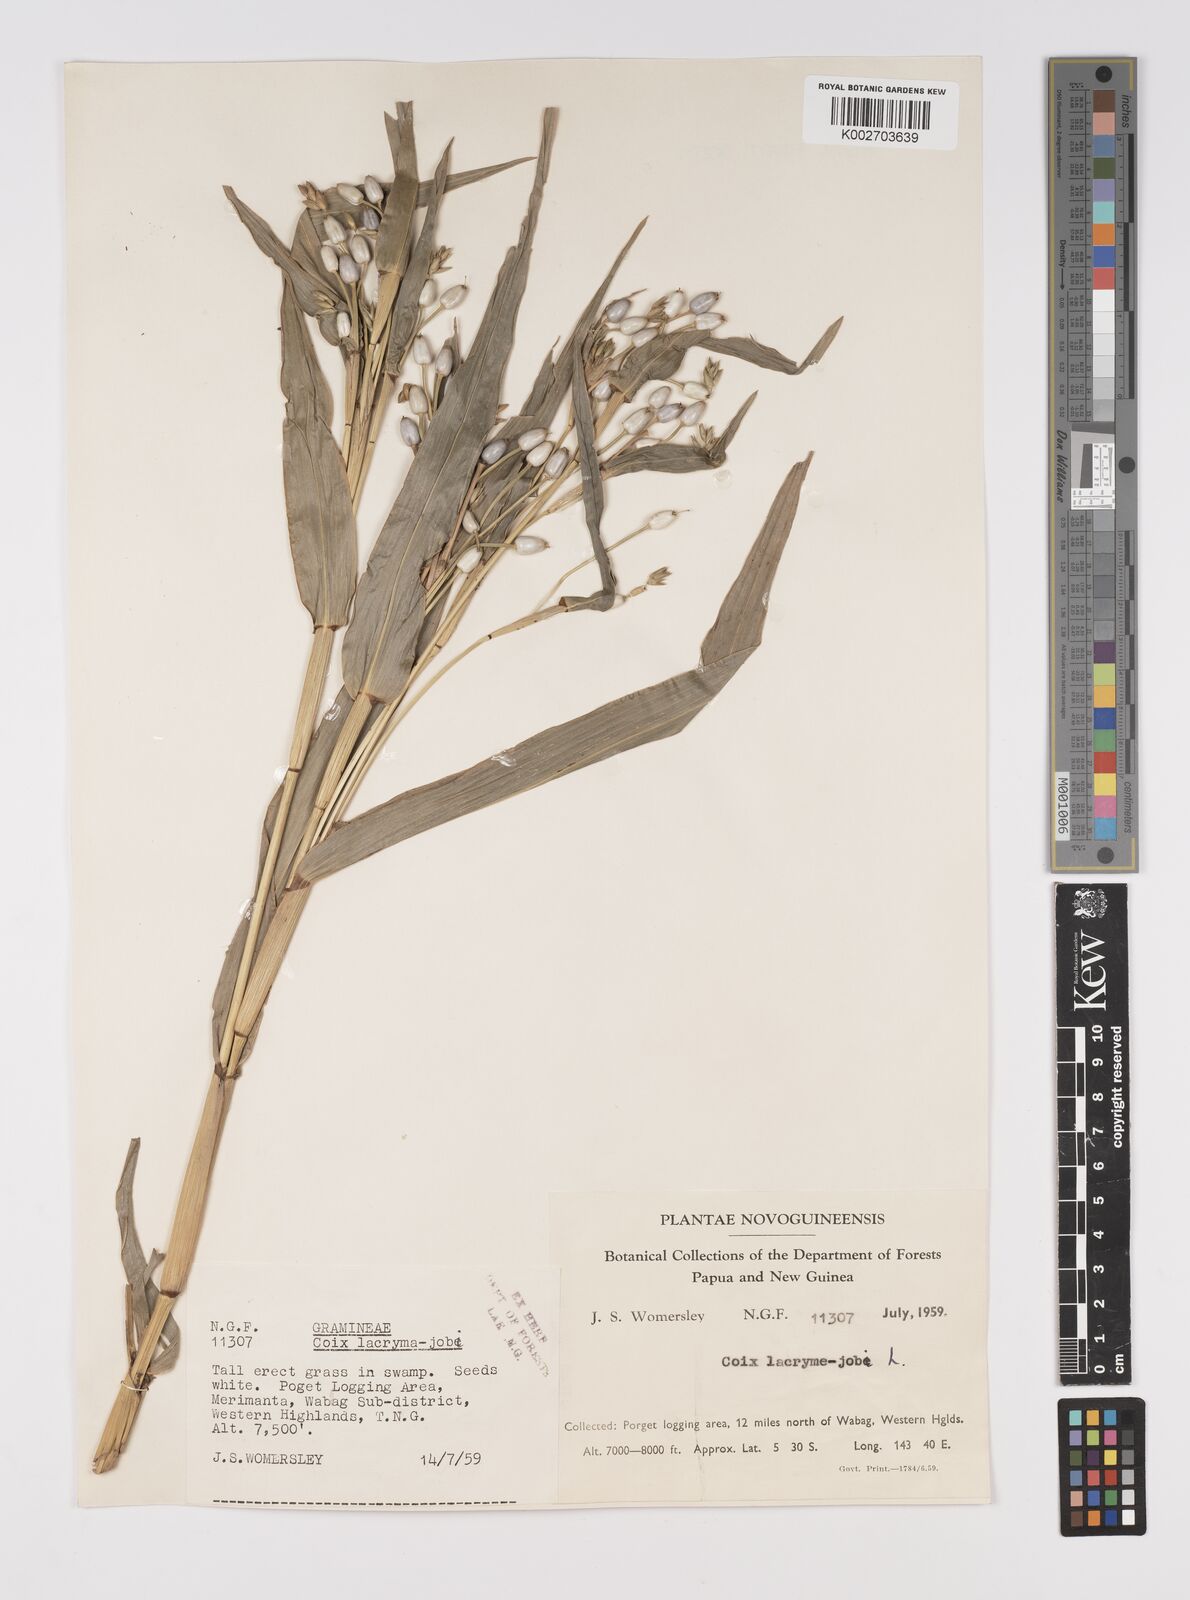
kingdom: Plantae
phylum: Tracheophyta
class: Liliopsida
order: Poales
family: Poaceae
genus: Coix
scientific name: Coix lacryma-jobi
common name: Job's tears
